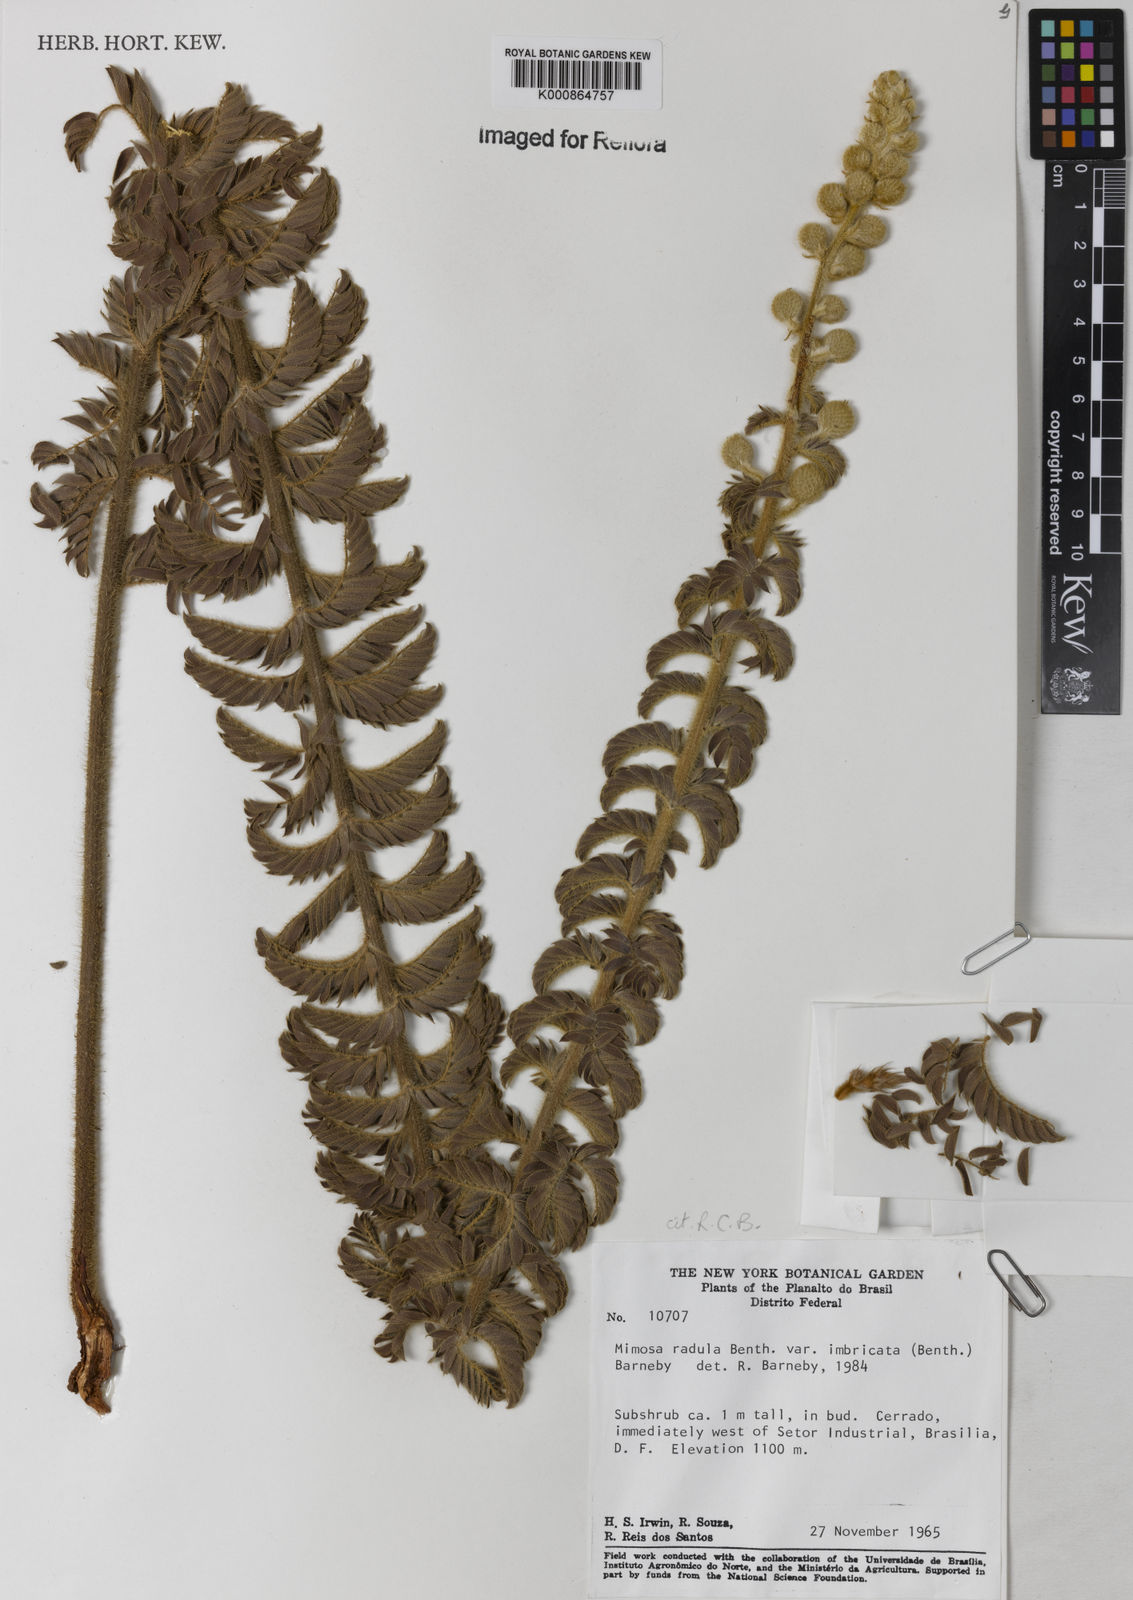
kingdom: Plantae
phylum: Tracheophyta
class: Magnoliopsida
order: Fabales
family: Fabaceae
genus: Mimosa
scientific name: Mimosa radula
